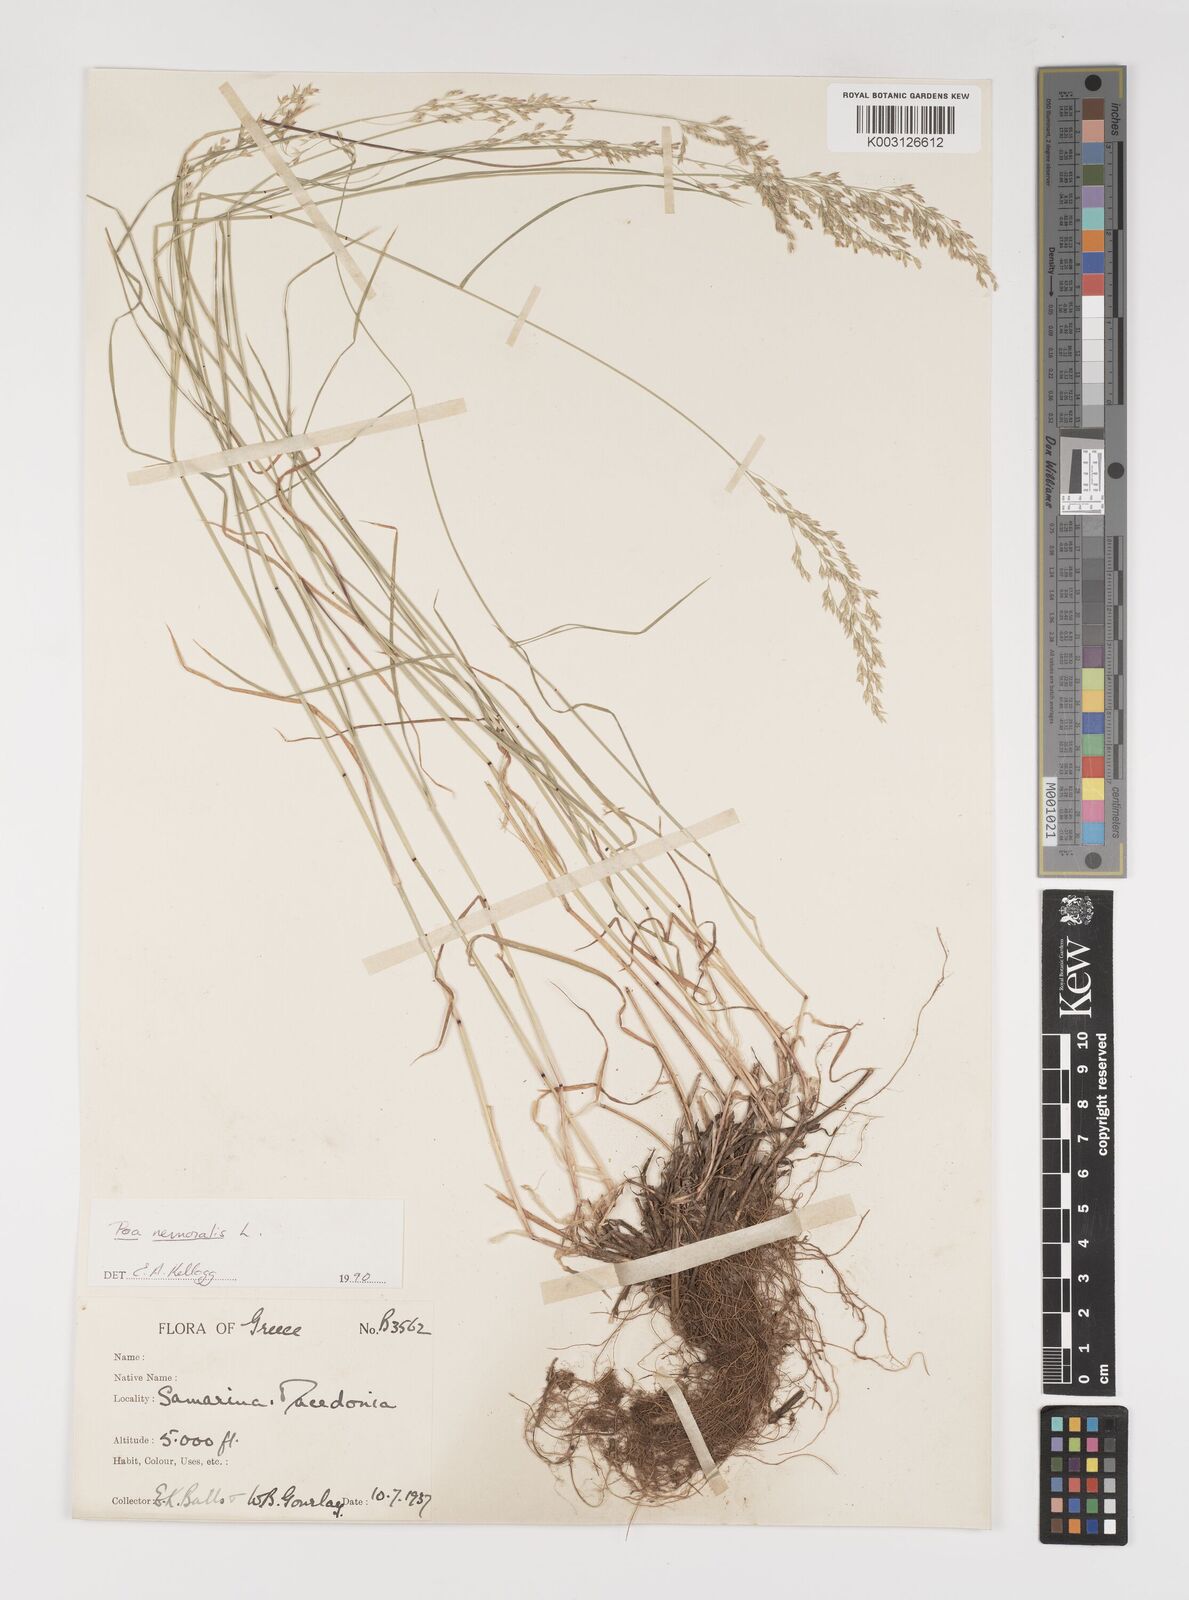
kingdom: Plantae
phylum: Tracheophyta
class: Liliopsida
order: Poales
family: Poaceae
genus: Poa
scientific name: Poa nemoralis
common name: Wood bluegrass
